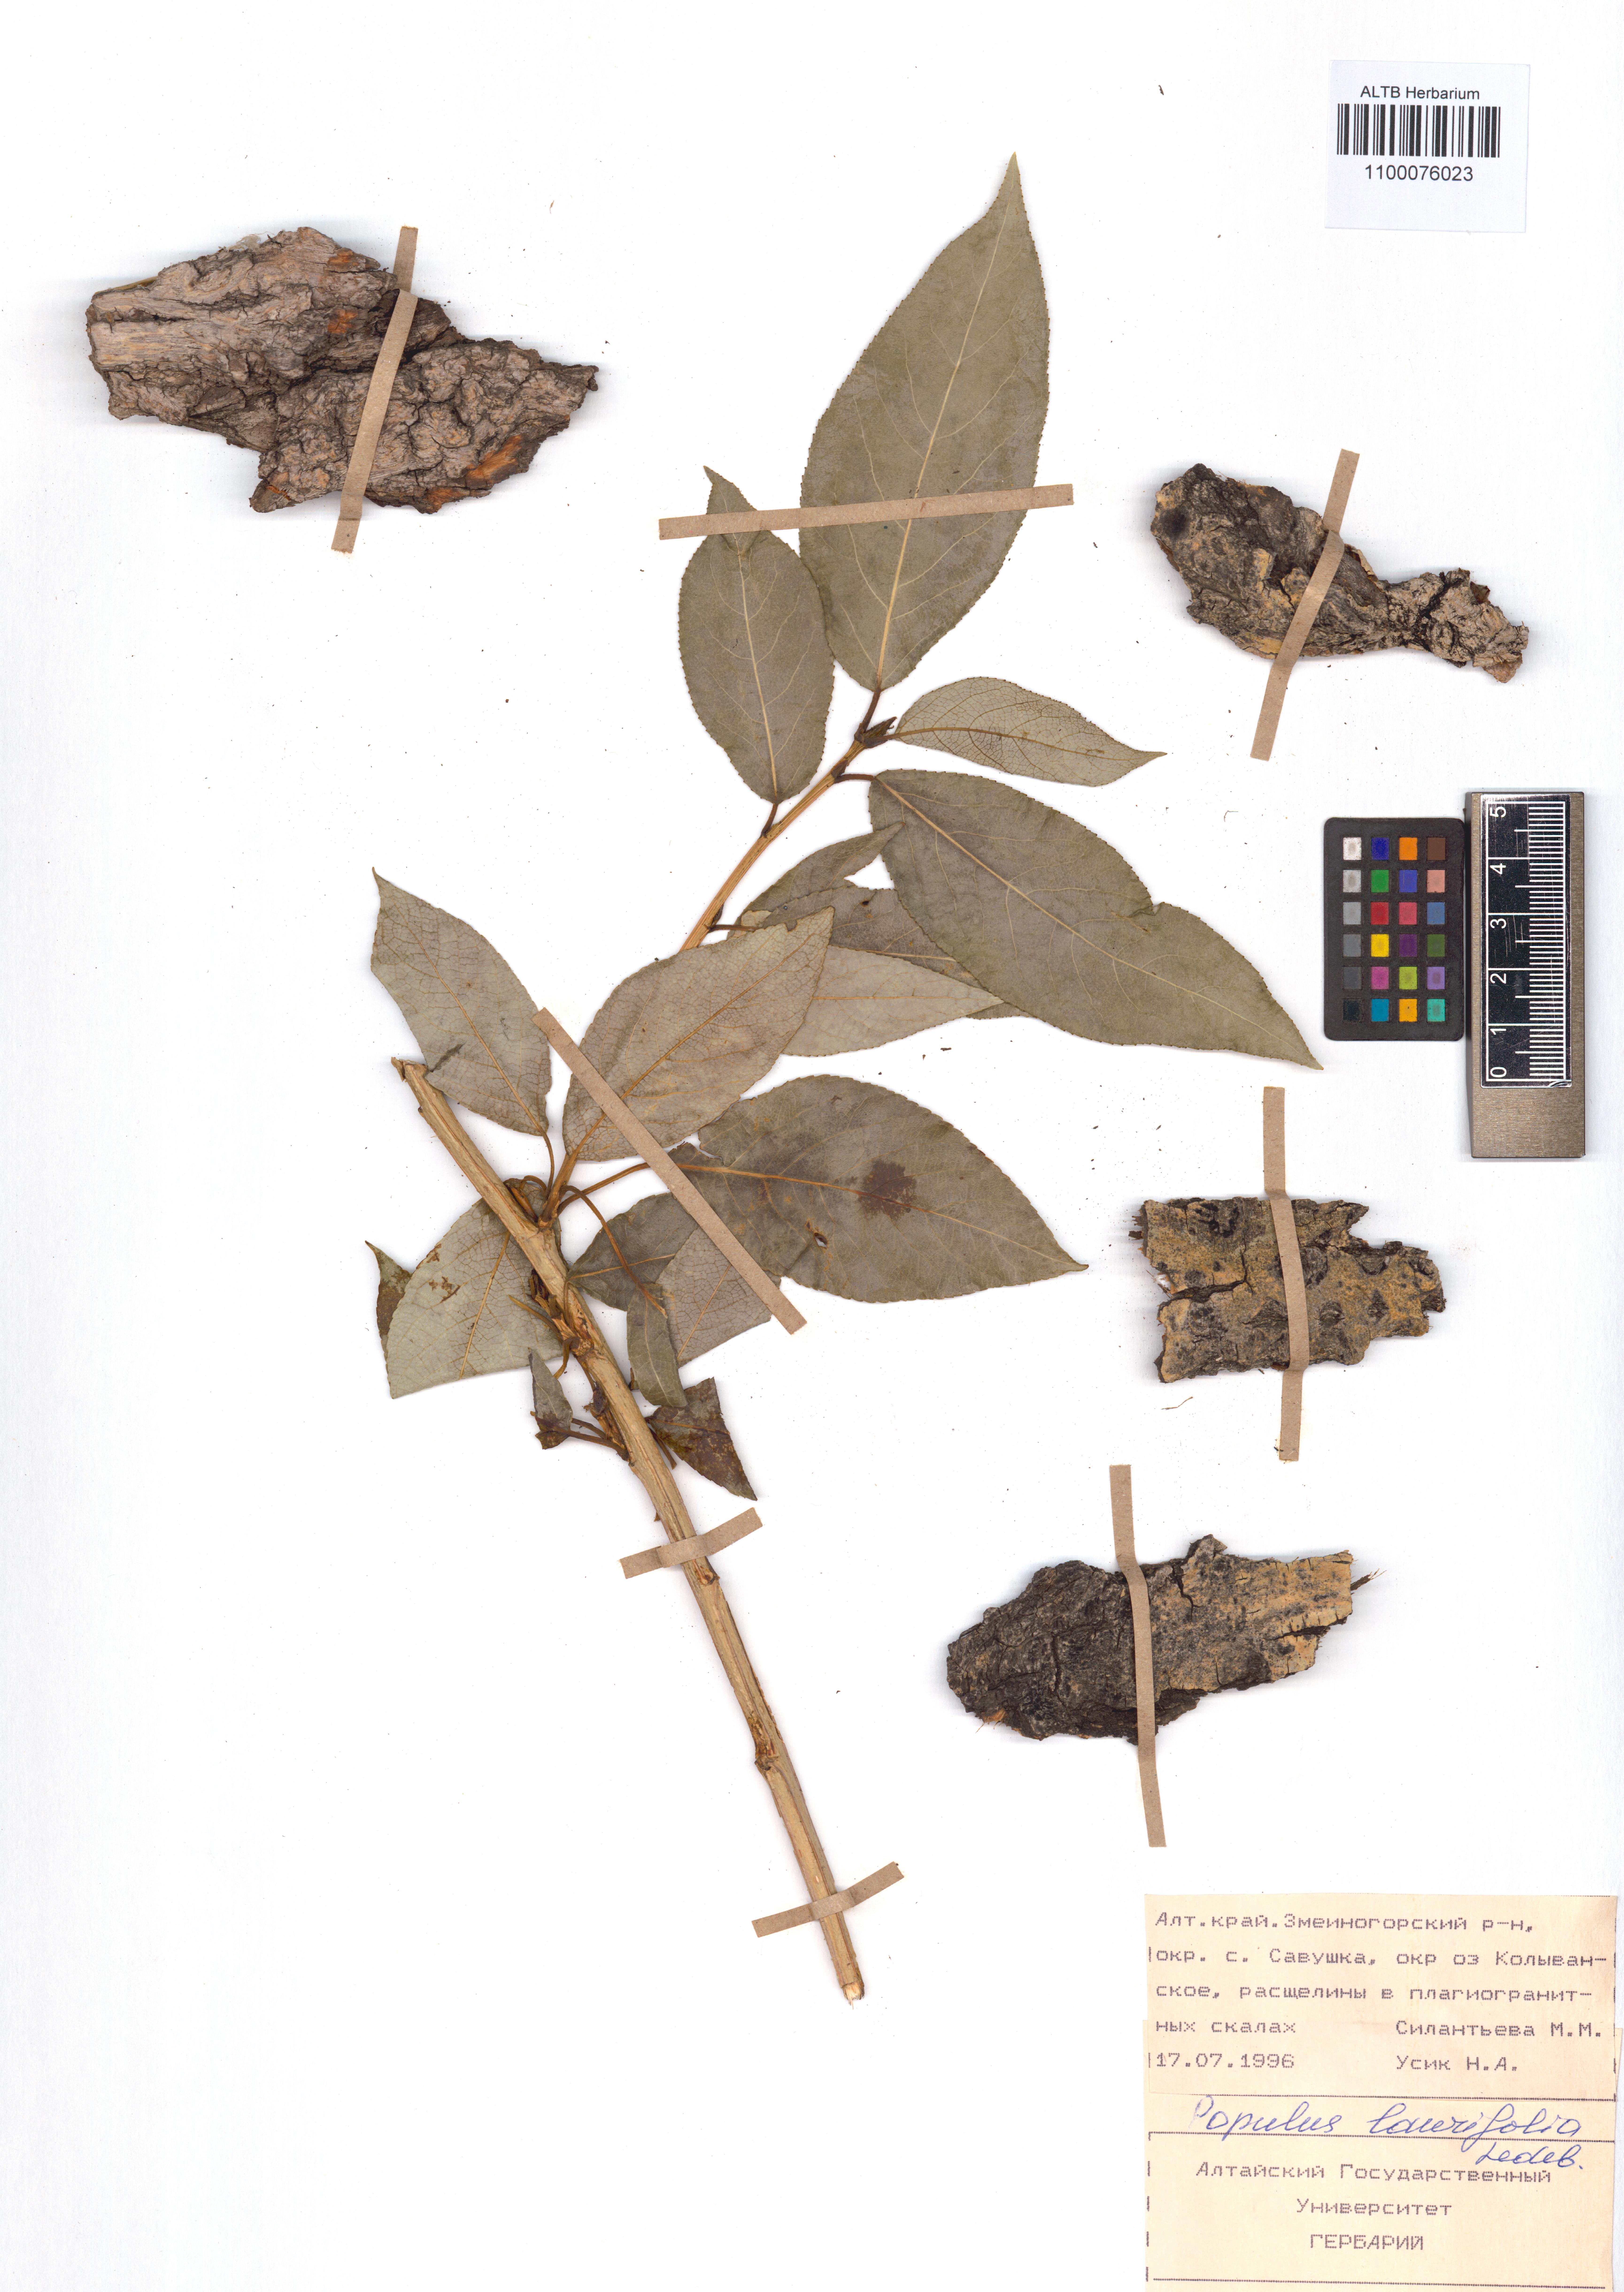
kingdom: Plantae
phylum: Tracheophyta
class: Magnoliopsida
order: Malpighiales
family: Salicaceae
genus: Populus
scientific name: Populus laurifolia
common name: Laurel-leaf poplar
